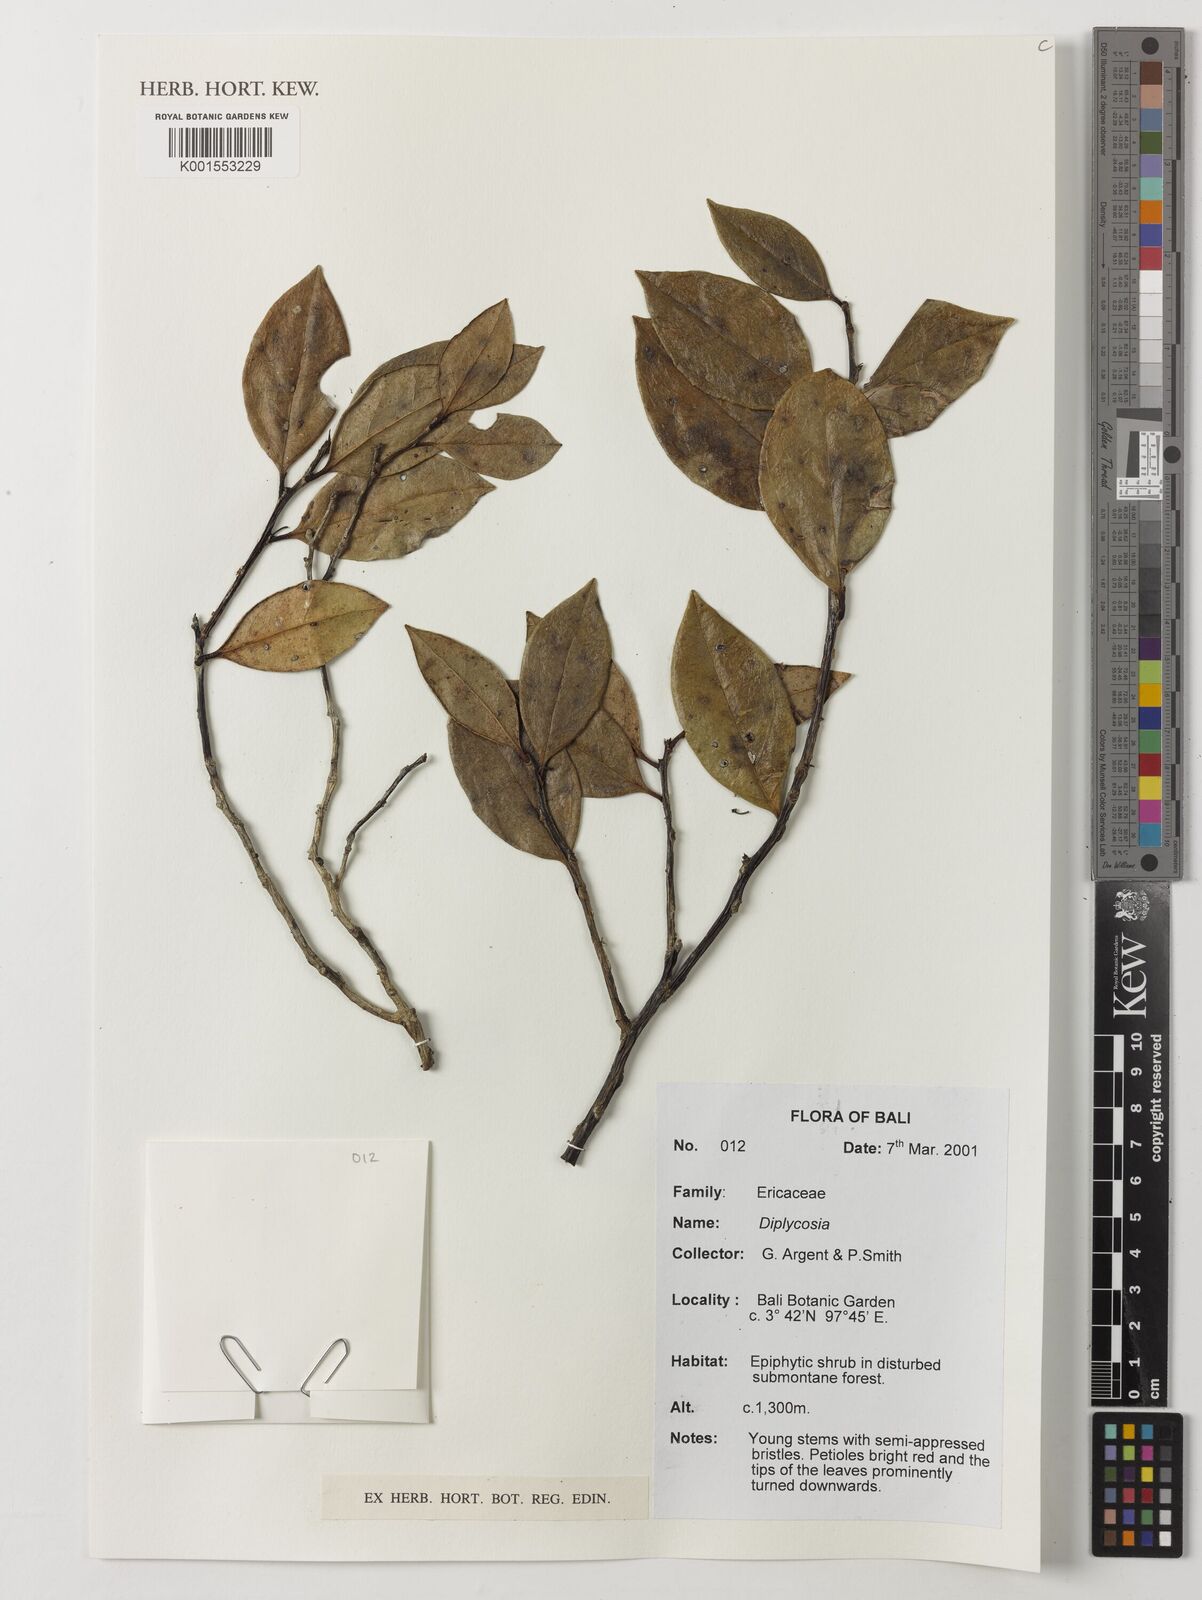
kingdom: Plantae
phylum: Tracheophyta
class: Magnoliopsida
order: Ericales
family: Ericaceae
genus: Gaultheria
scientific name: Gaultheria
